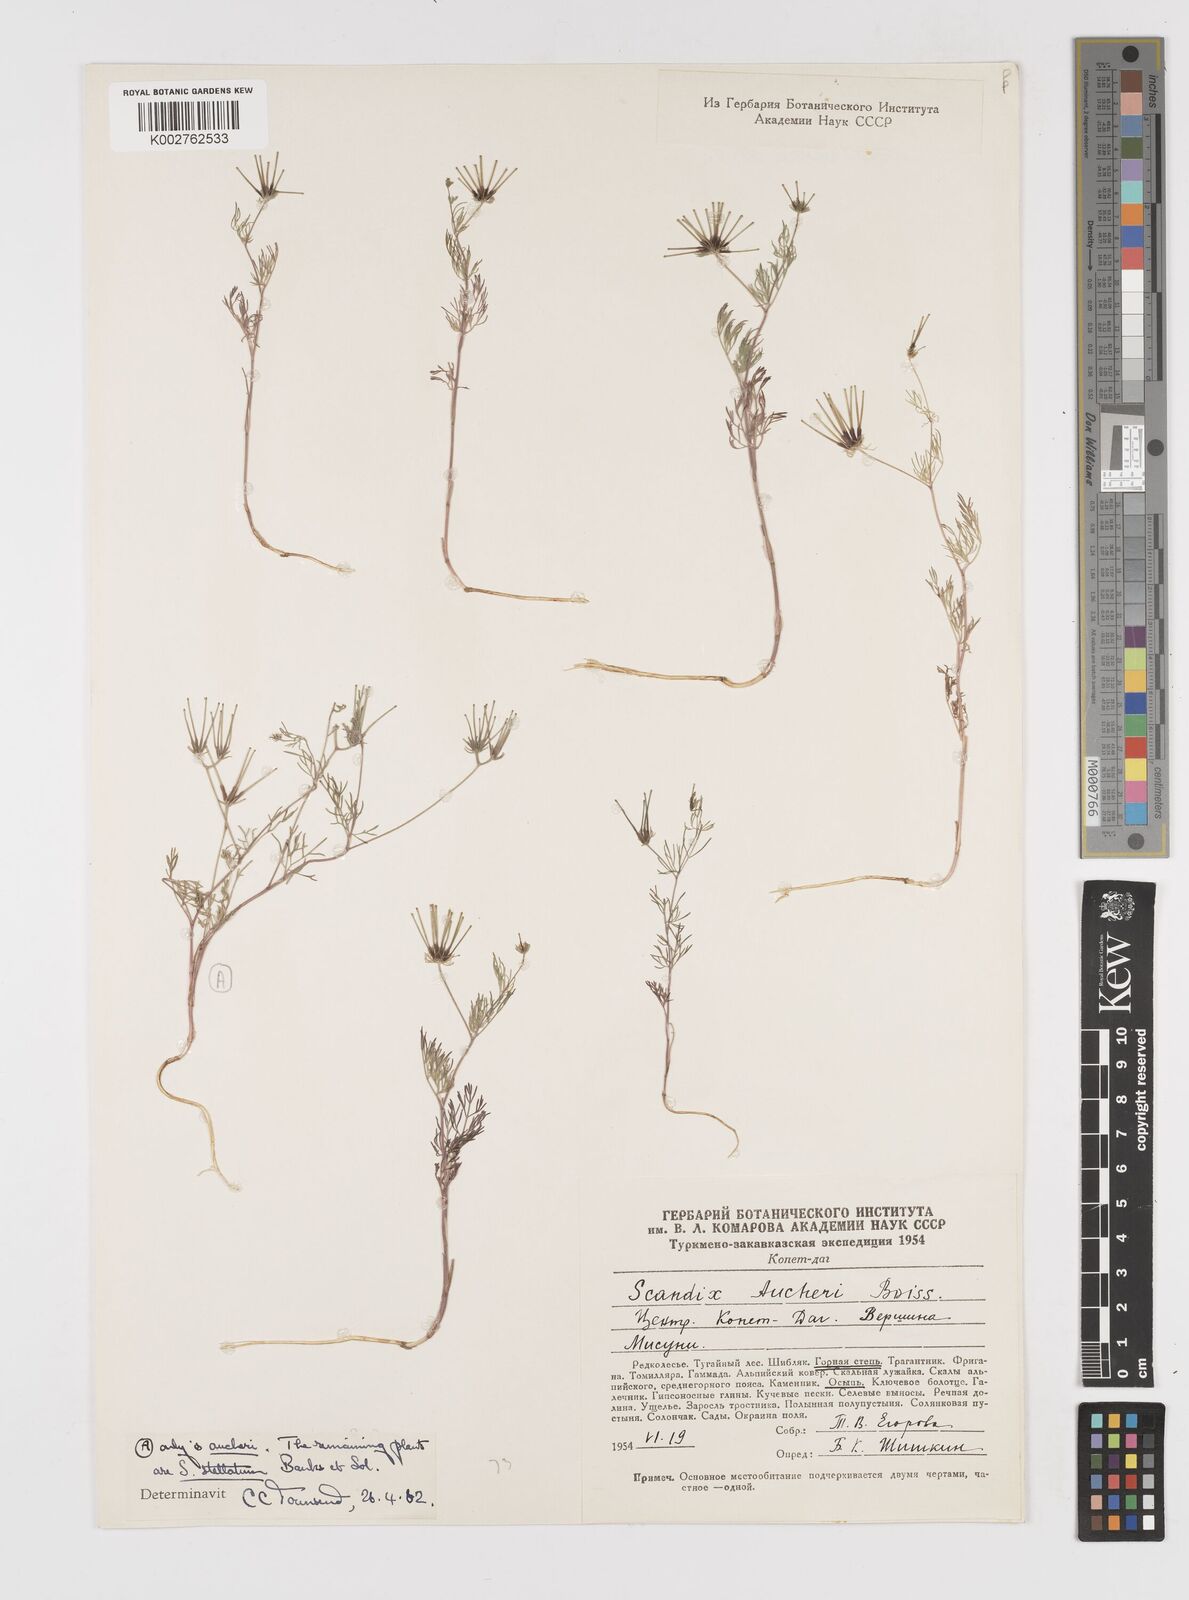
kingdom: Plantae
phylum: Tracheophyta
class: Magnoliopsida
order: Apiales
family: Apiaceae
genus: Scandix
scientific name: Scandix aucheri
